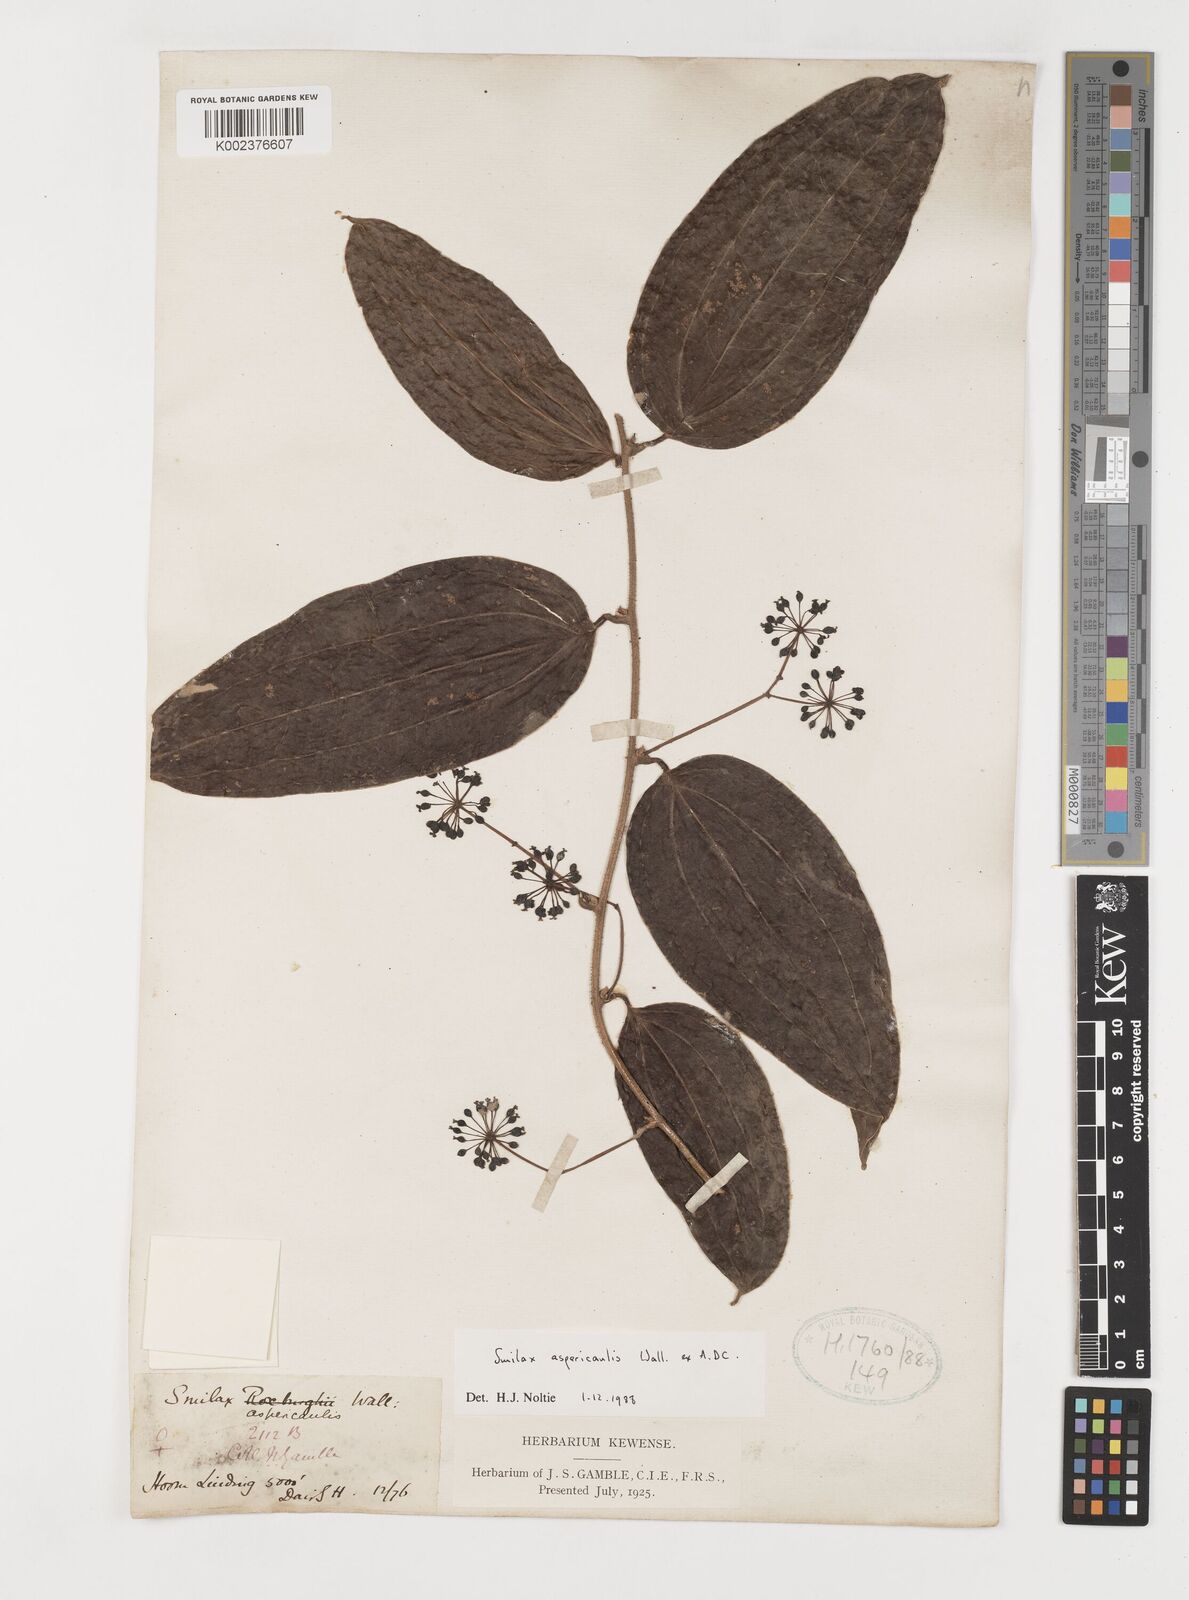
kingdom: Plantae
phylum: Tracheophyta
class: Liliopsida
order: Liliales
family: Smilacaceae
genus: Smilax
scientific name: Smilax aspericaulis
